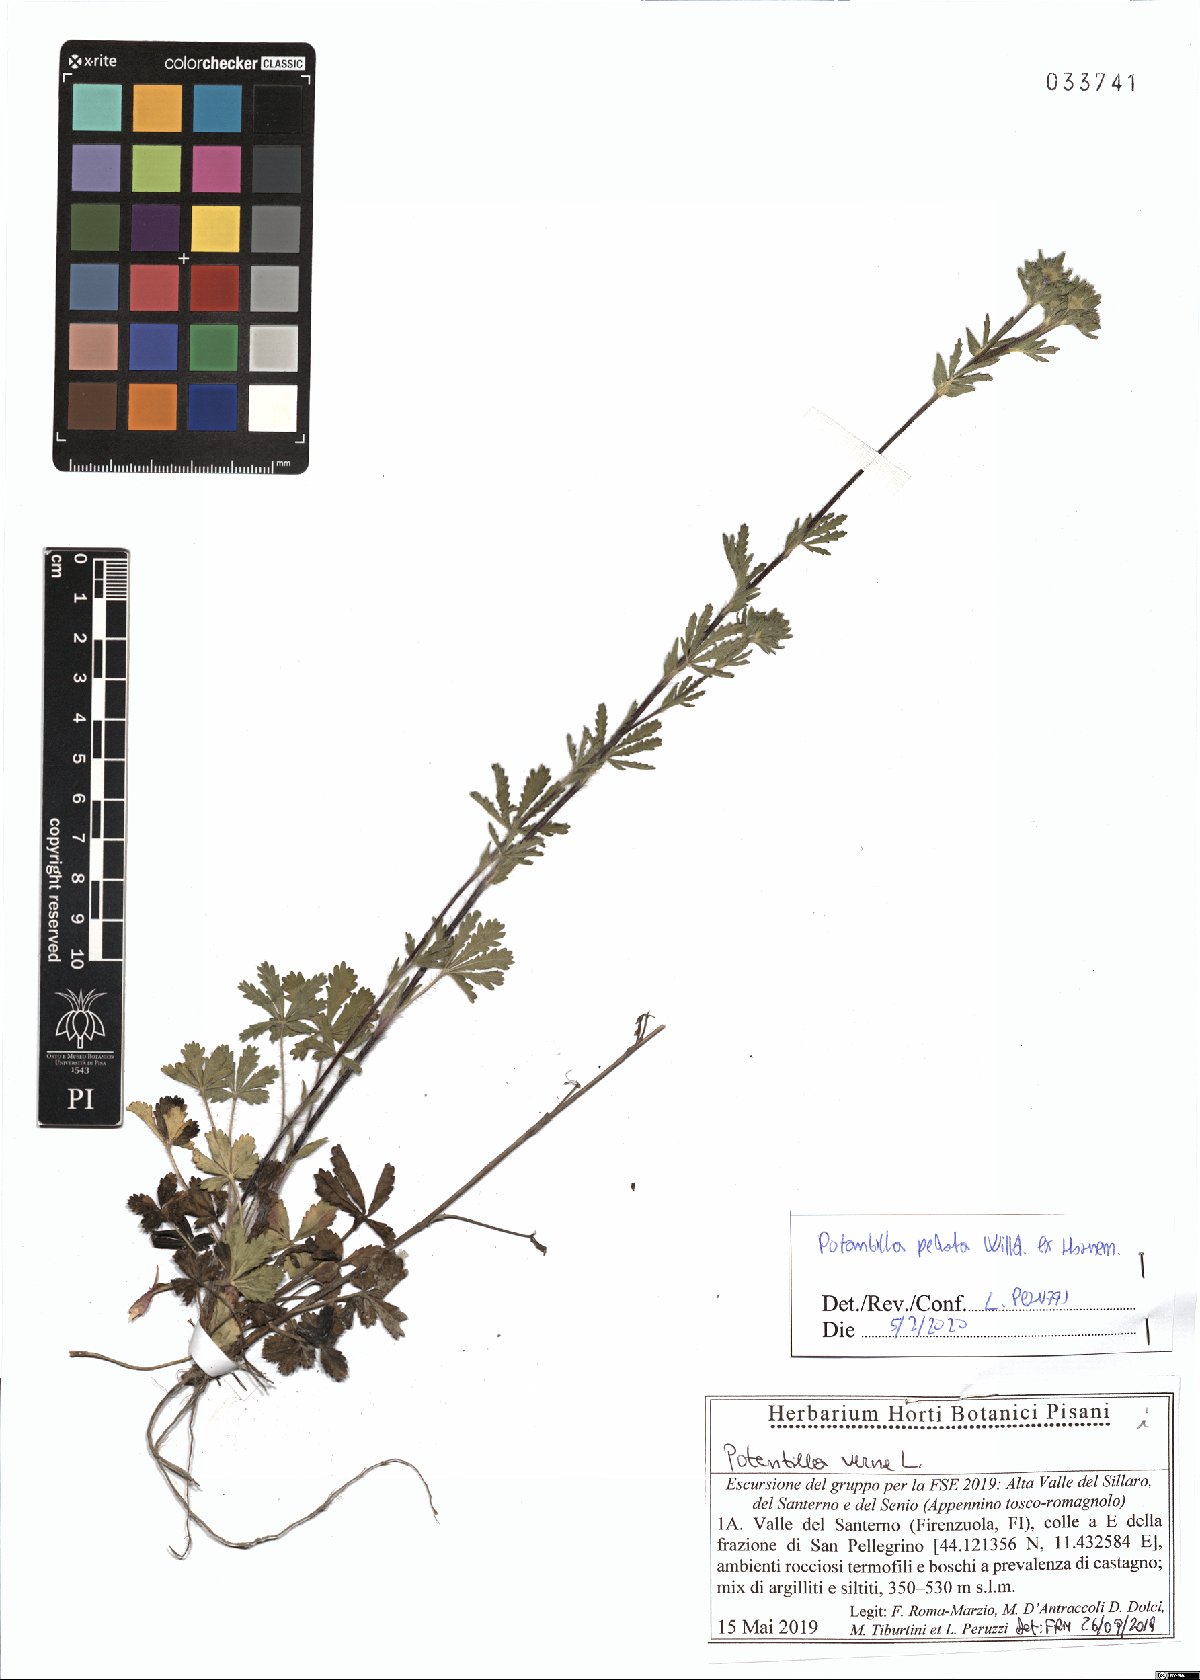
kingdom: Plantae
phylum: Tracheophyta
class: Magnoliopsida
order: Rosales
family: Rosaceae
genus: Potentilla
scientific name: Potentilla pedata
